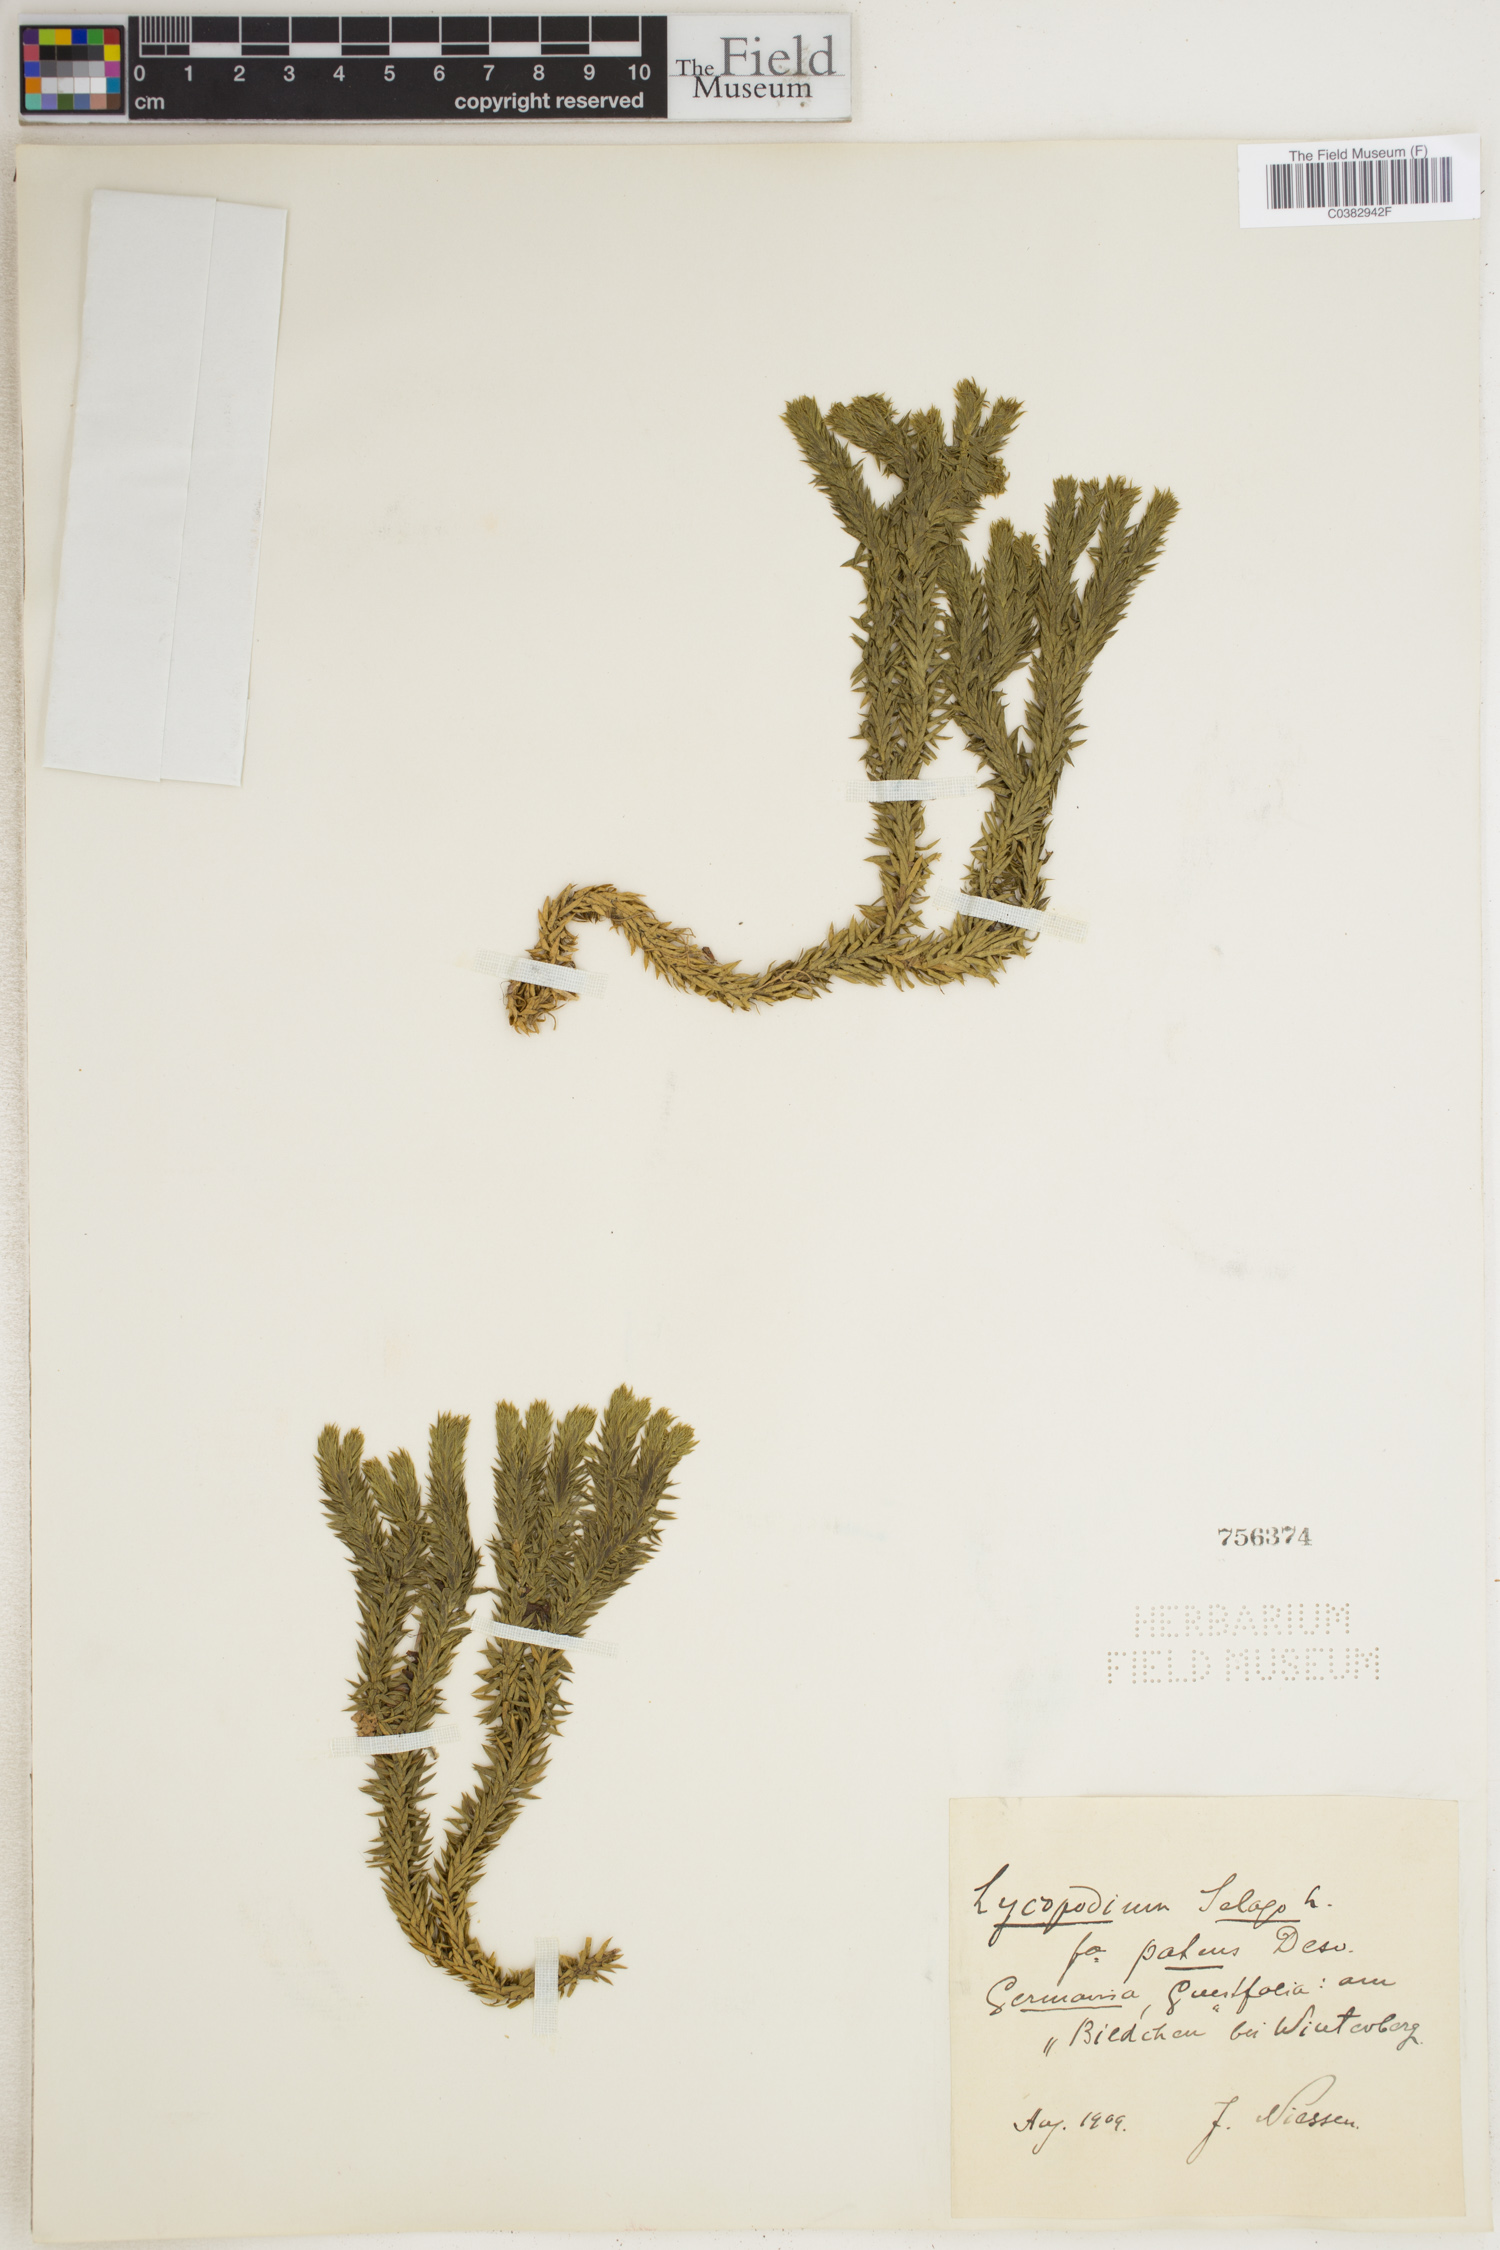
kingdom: Plantae
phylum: Tracheophyta
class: Lycopodiopsida
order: Lycopodiales
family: Lycopodiaceae
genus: Huperzia
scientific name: Huperzia selago
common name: Northern firmoss
